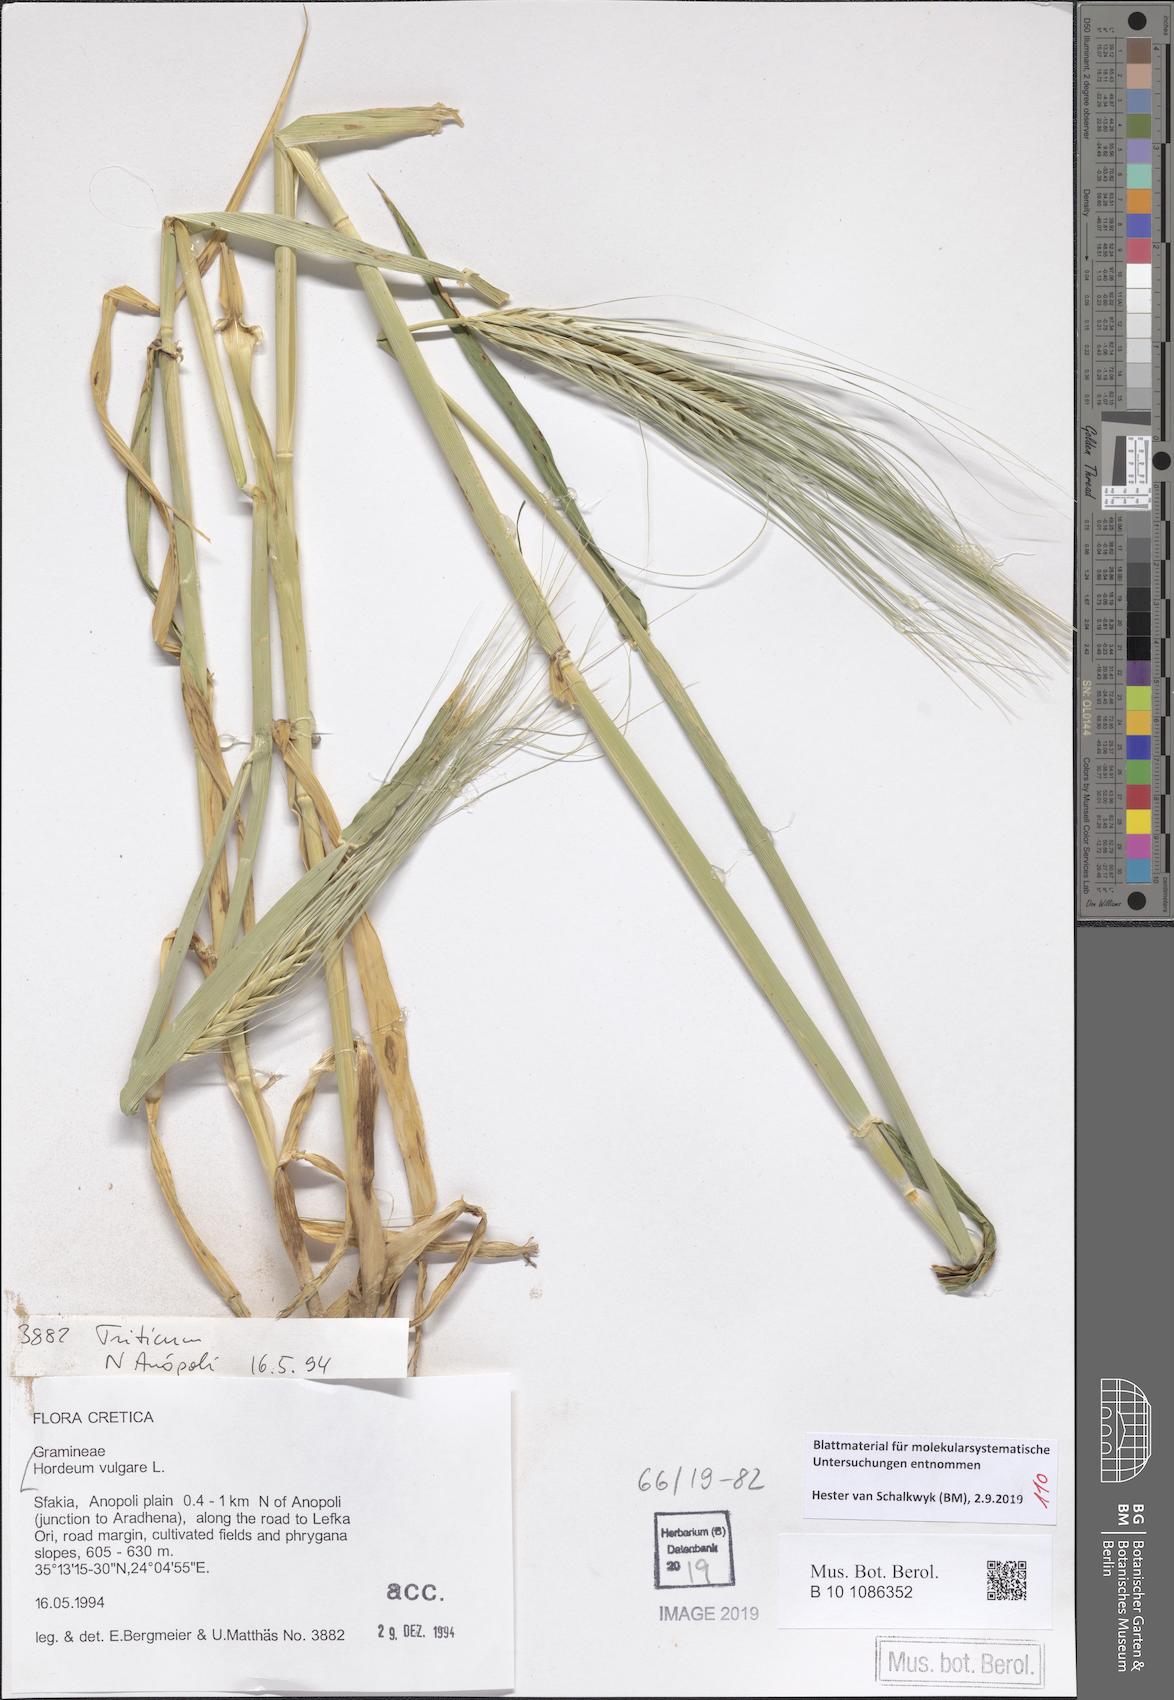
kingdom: Plantae
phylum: Tracheophyta
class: Liliopsida
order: Poales
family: Poaceae
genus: Hordeum
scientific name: Hordeum vulgare
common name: Common barley
